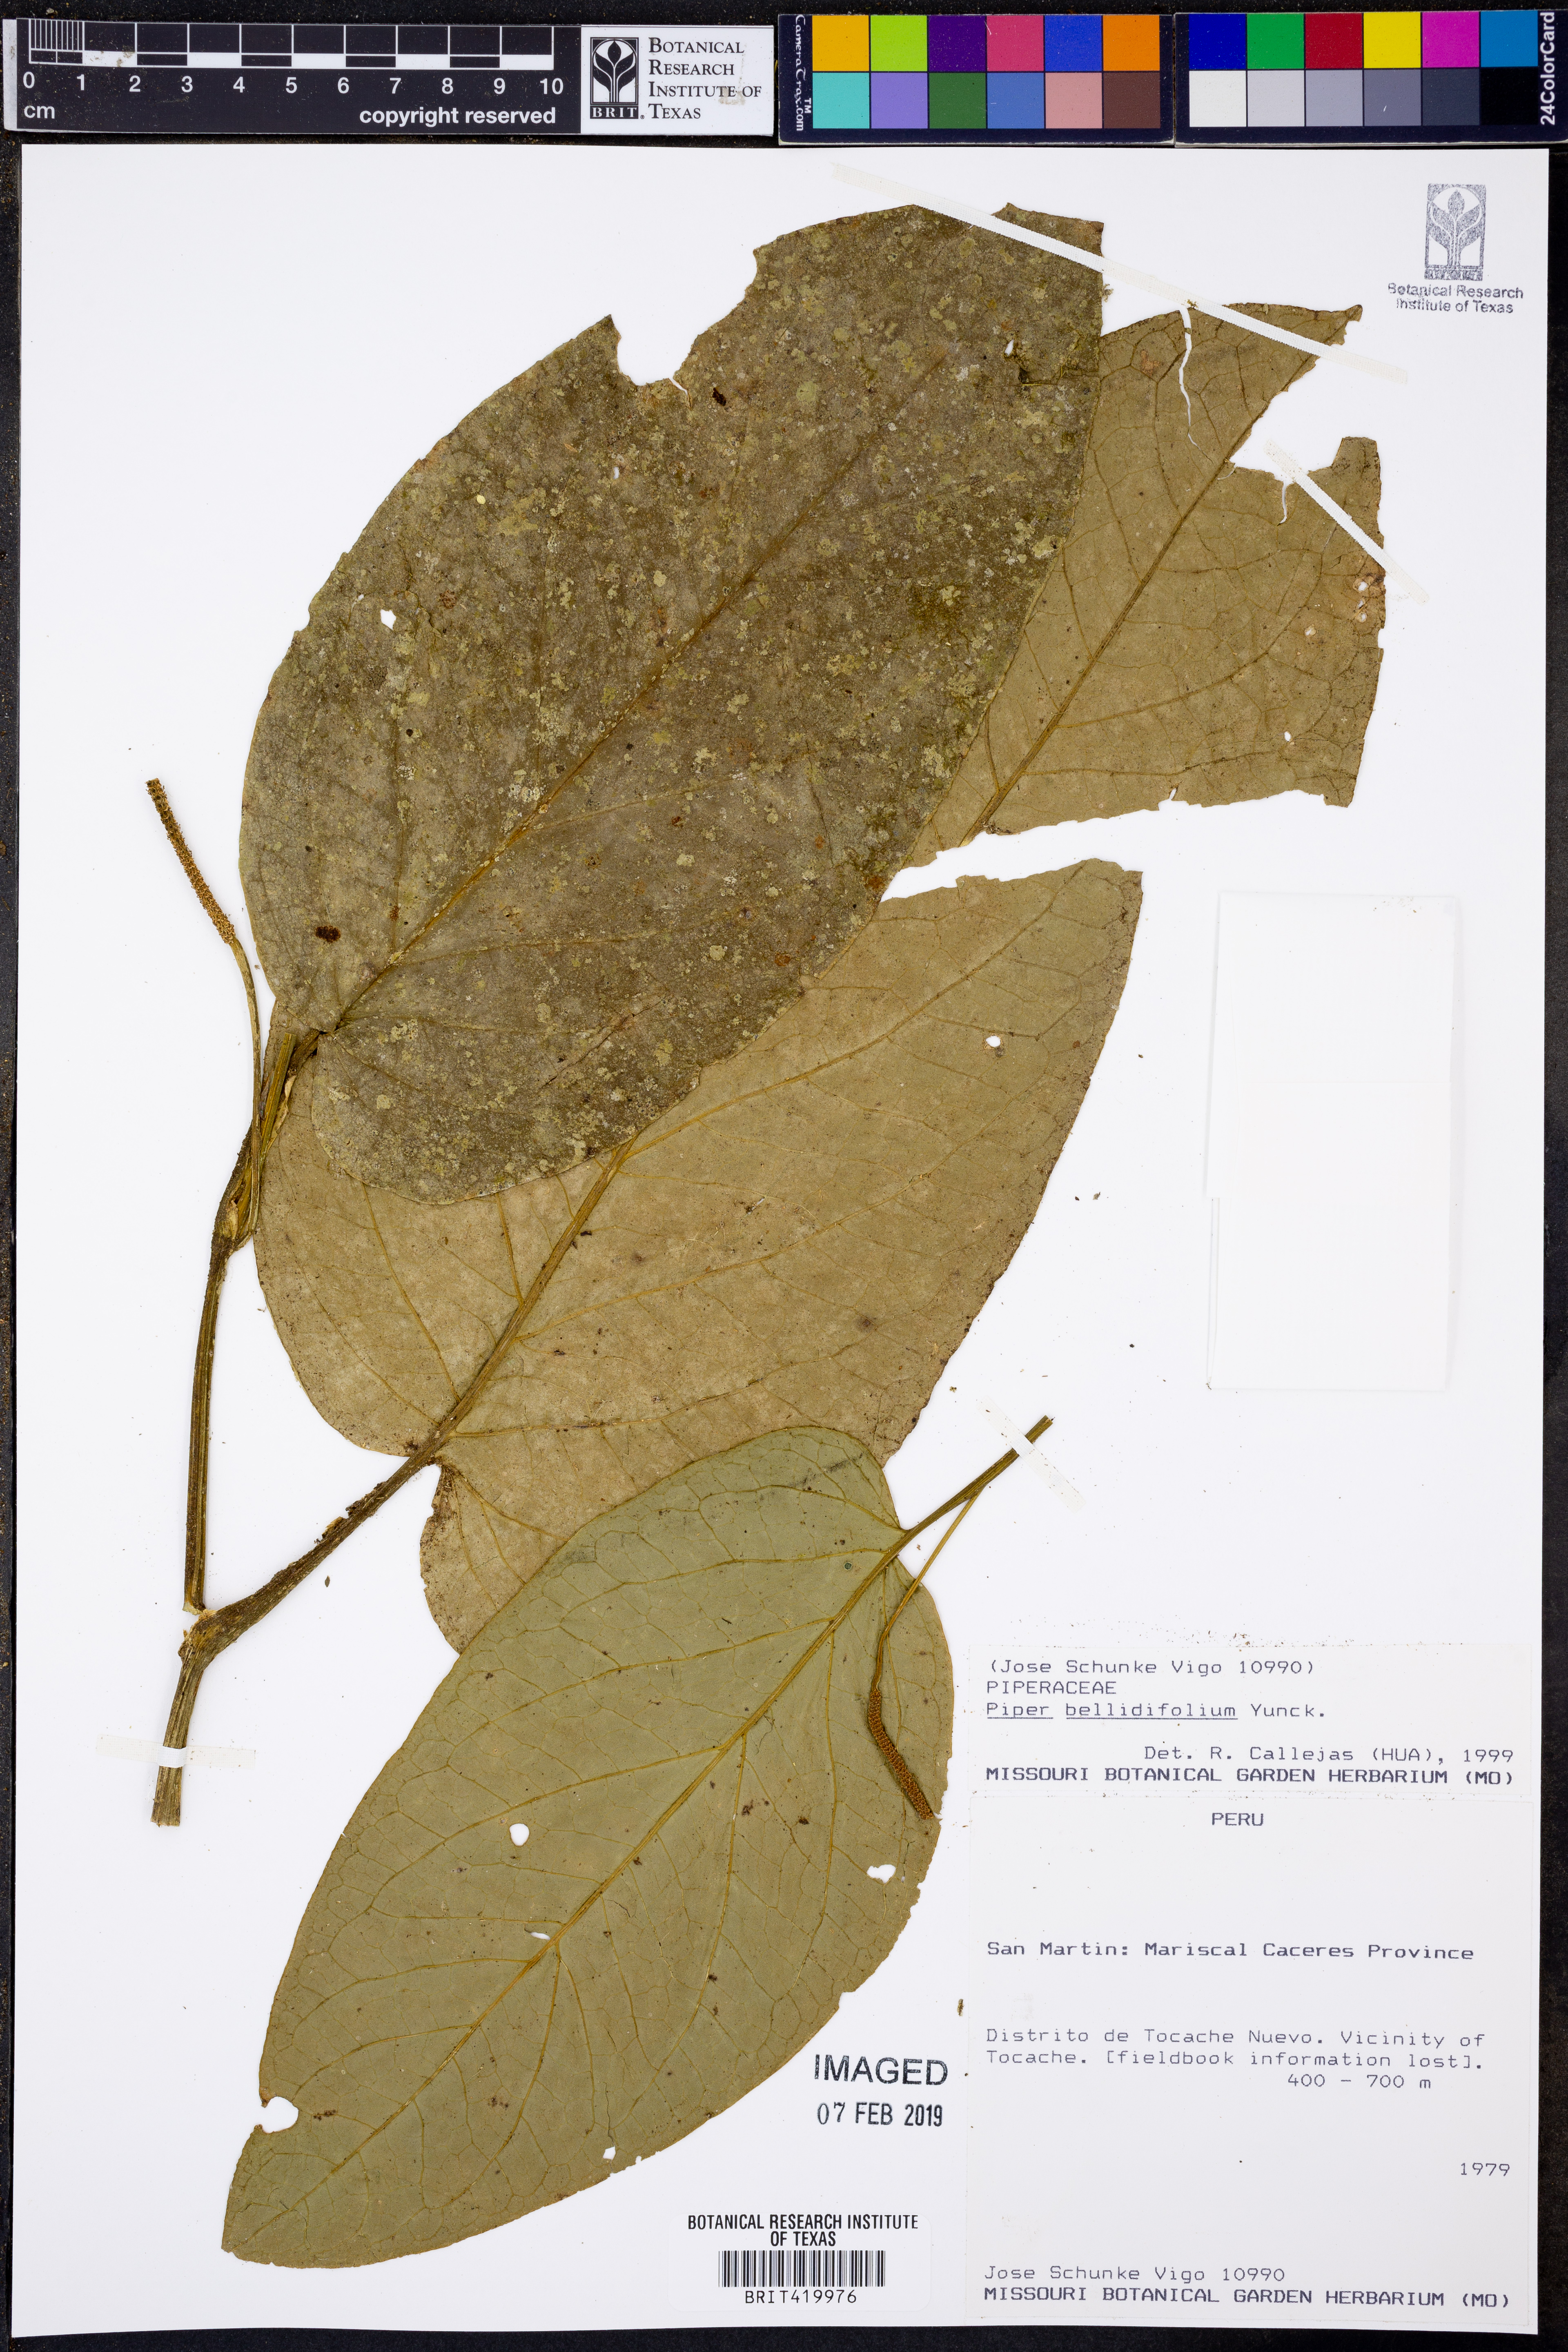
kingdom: Plantae
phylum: Tracheophyta
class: Magnoliopsida
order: Piperales
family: Piperaceae
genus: Piper
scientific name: Piper bellidifolium
